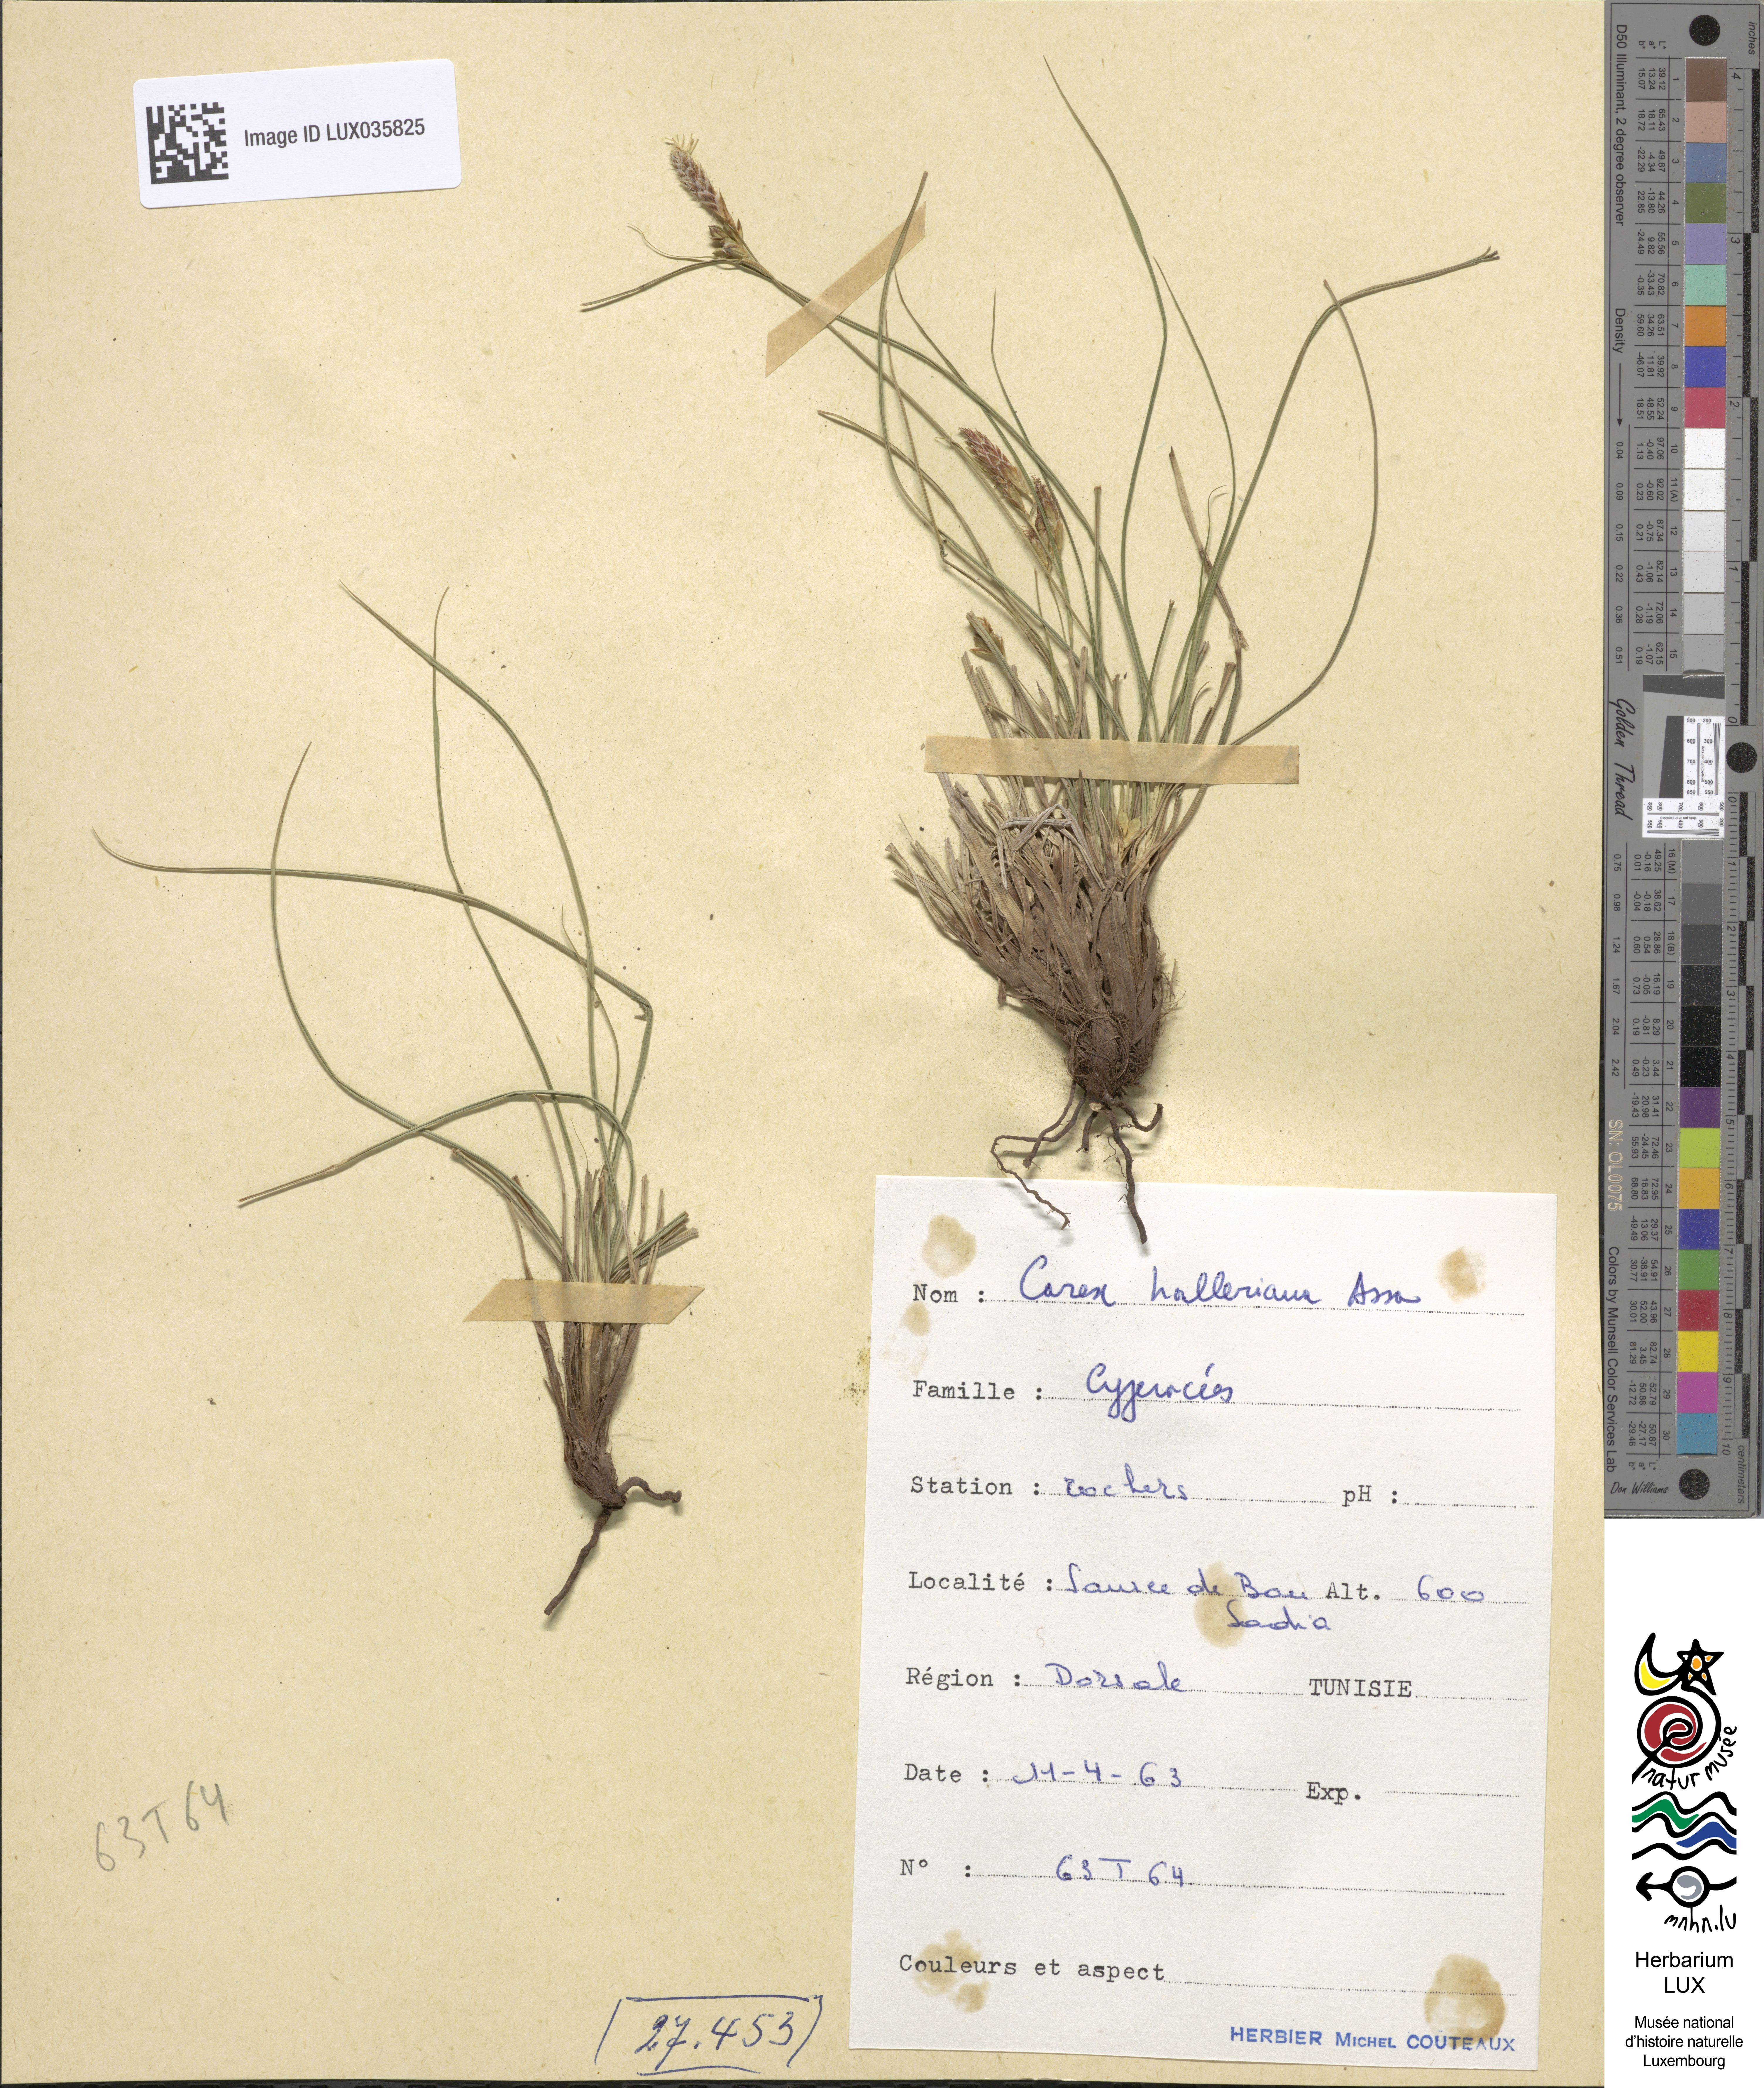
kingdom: Plantae
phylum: Tracheophyta
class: Liliopsida
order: Poales
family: Cyperaceae
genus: Carex
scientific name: Carex halleriana
